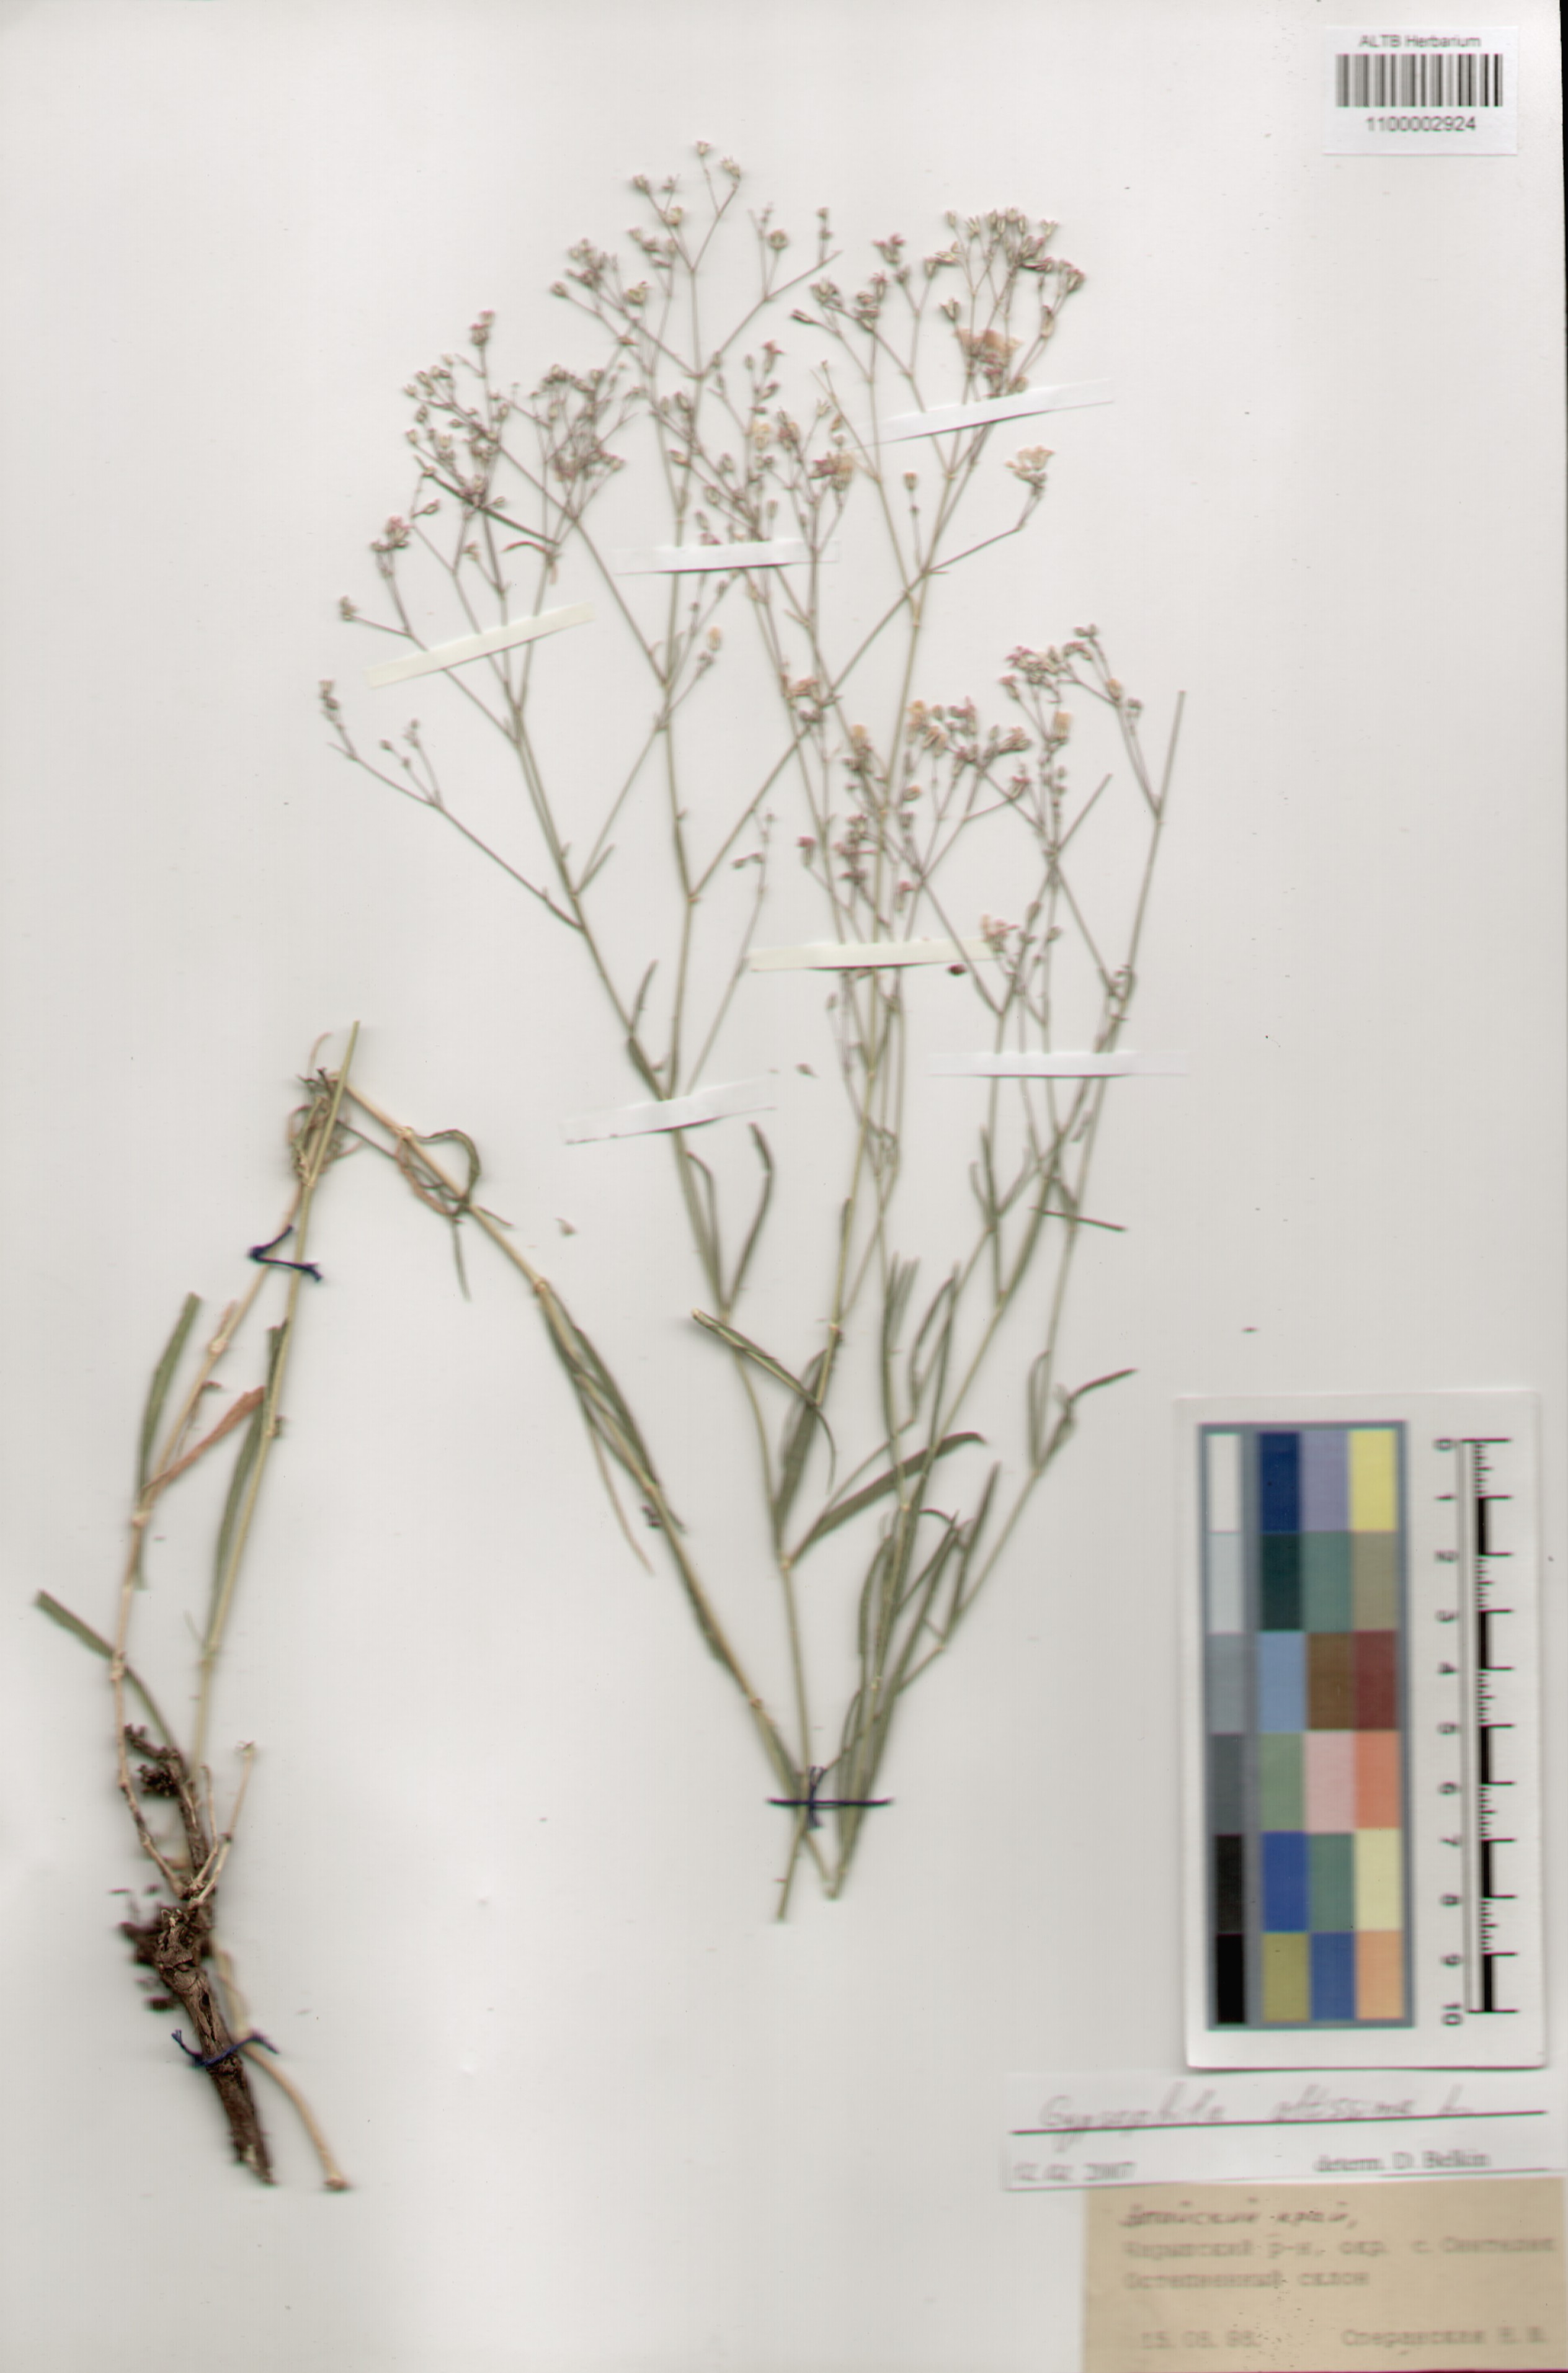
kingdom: Plantae
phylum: Tracheophyta
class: Magnoliopsida
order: Caryophyllales
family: Caryophyllaceae
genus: Gypsophila
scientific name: Gypsophila altissima
